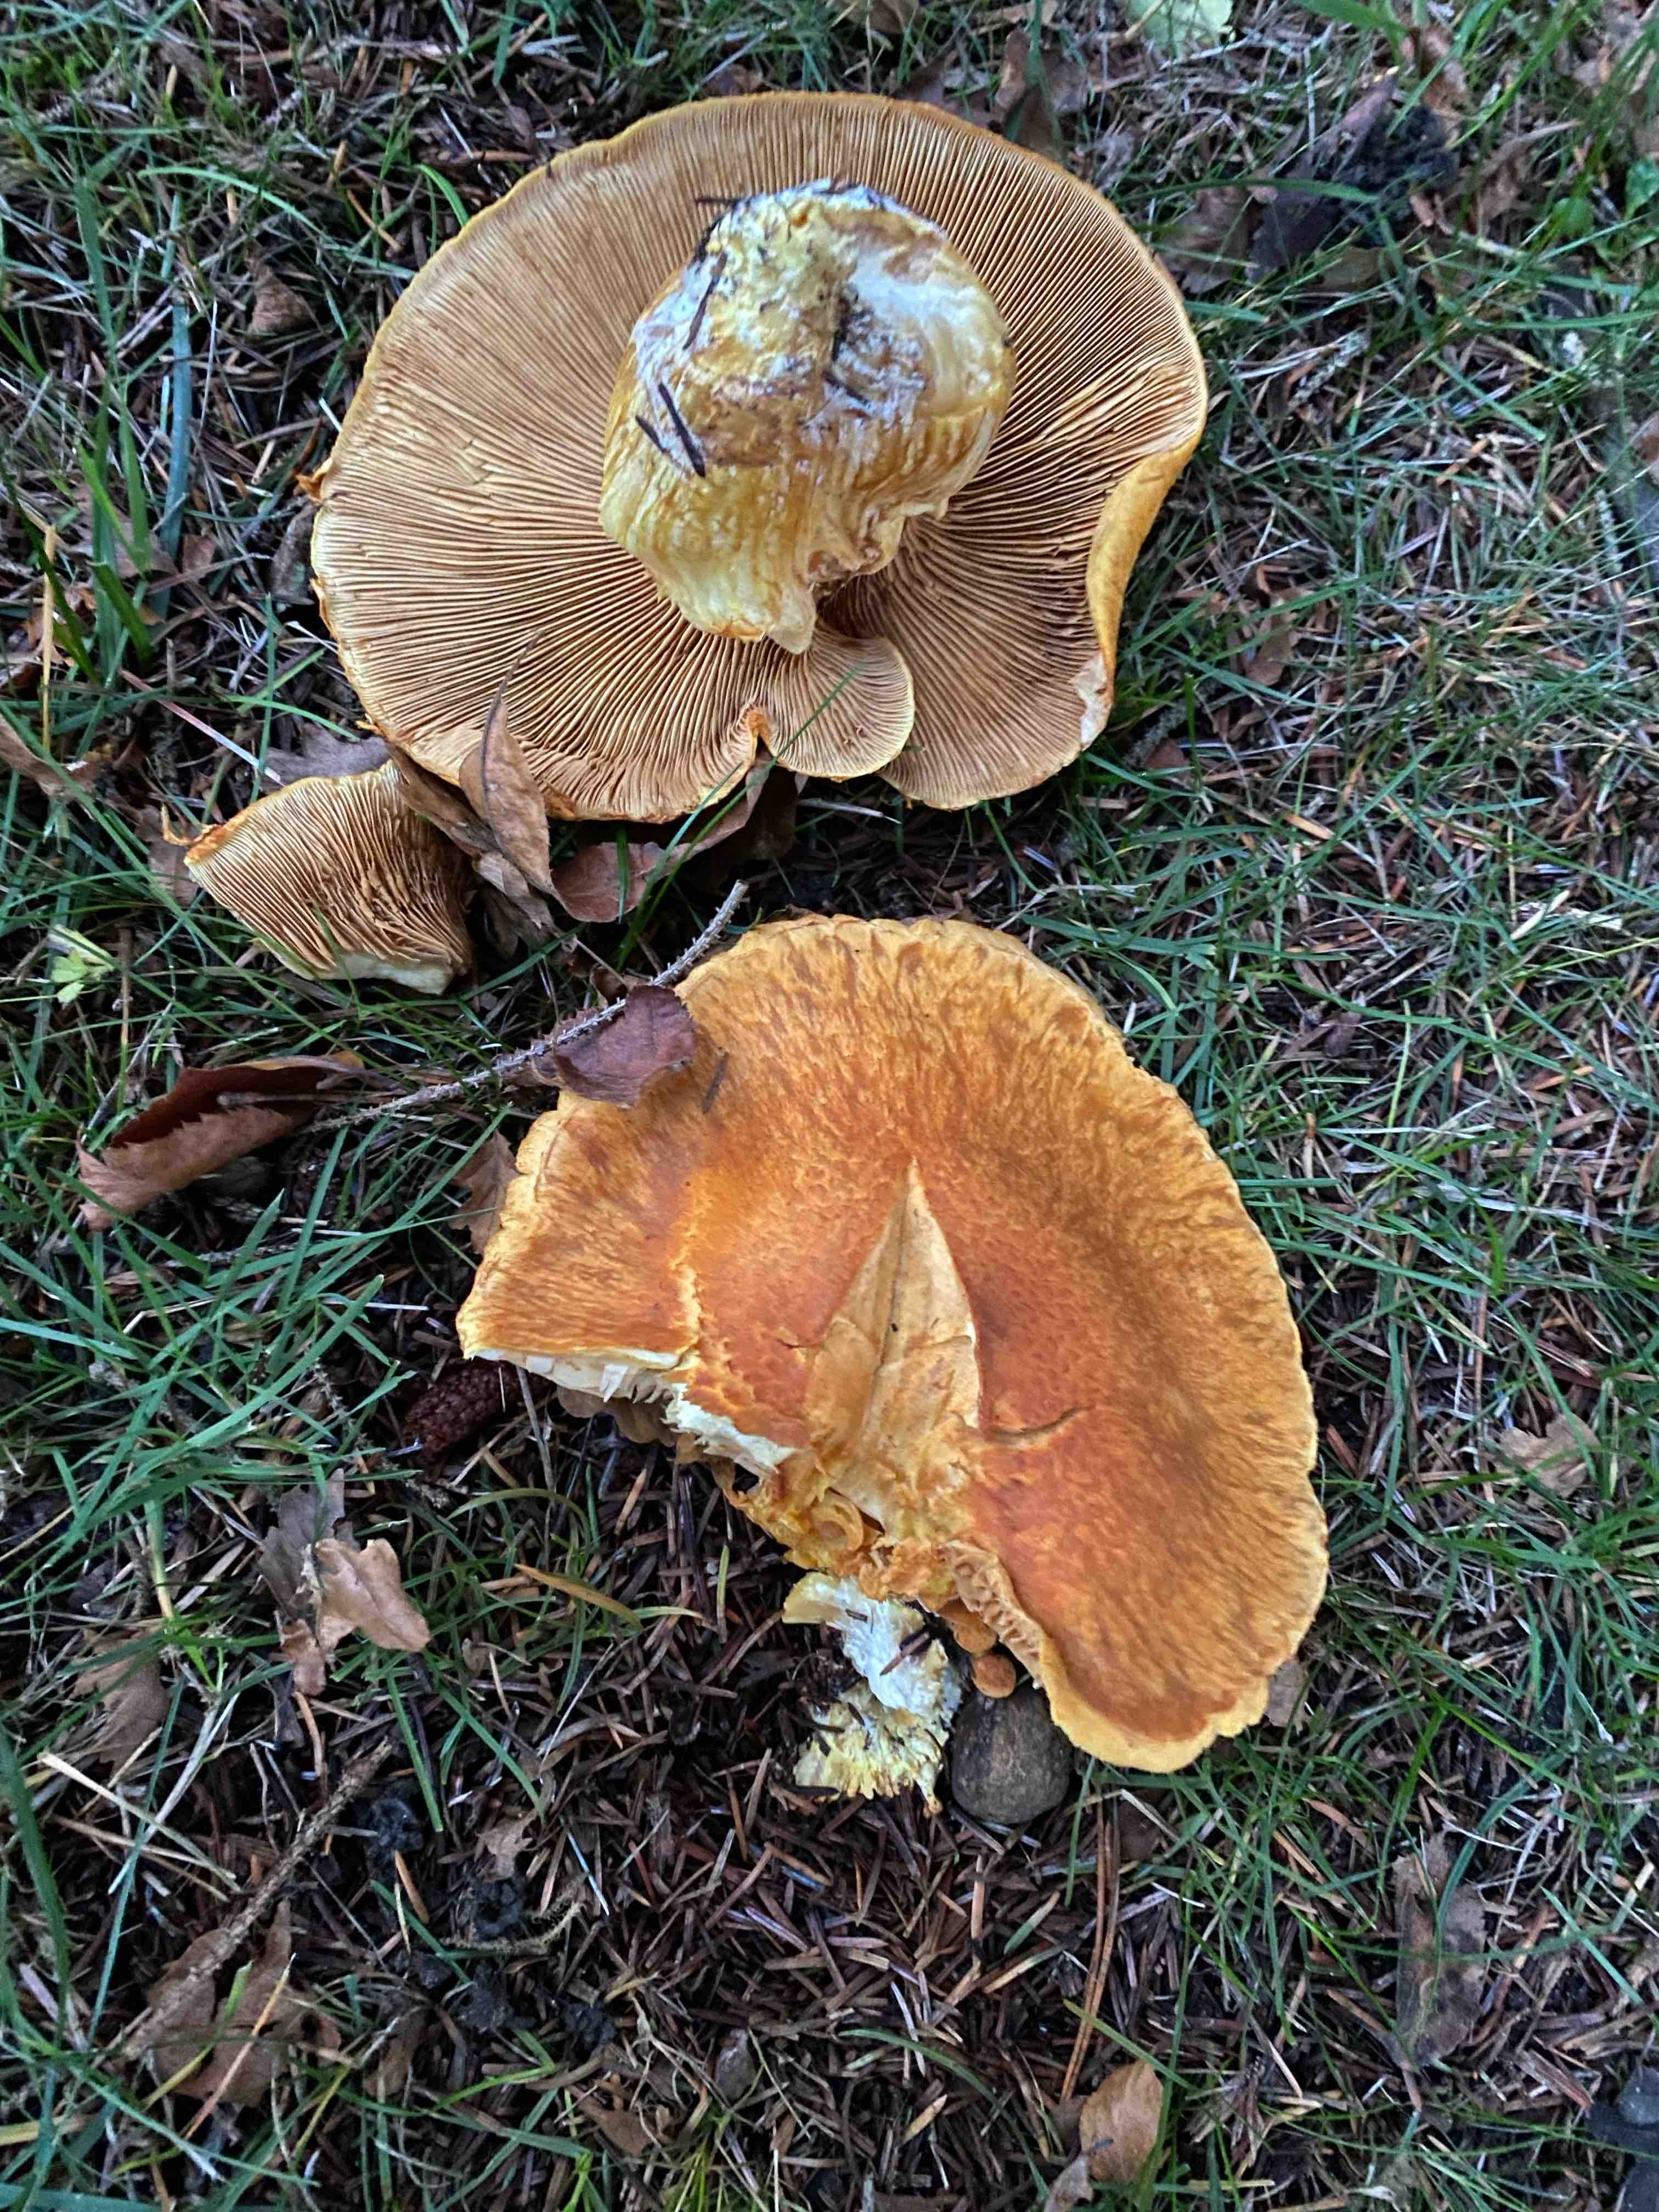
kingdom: Fungi
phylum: Basidiomycota
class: Agaricomycetes
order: Agaricales
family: Hymenogastraceae
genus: Gymnopilus
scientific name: Gymnopilus spectabilis
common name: fibret flammehat
